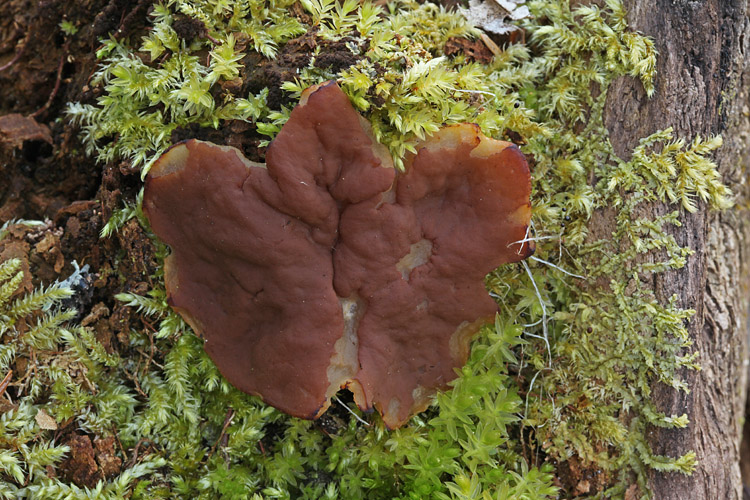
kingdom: Fungi
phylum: Ascomycota
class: Pezizomycetes
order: Pezizales
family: Discinaceae
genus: Discina
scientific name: Discina ancilis
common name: udbredt stenmorkel
